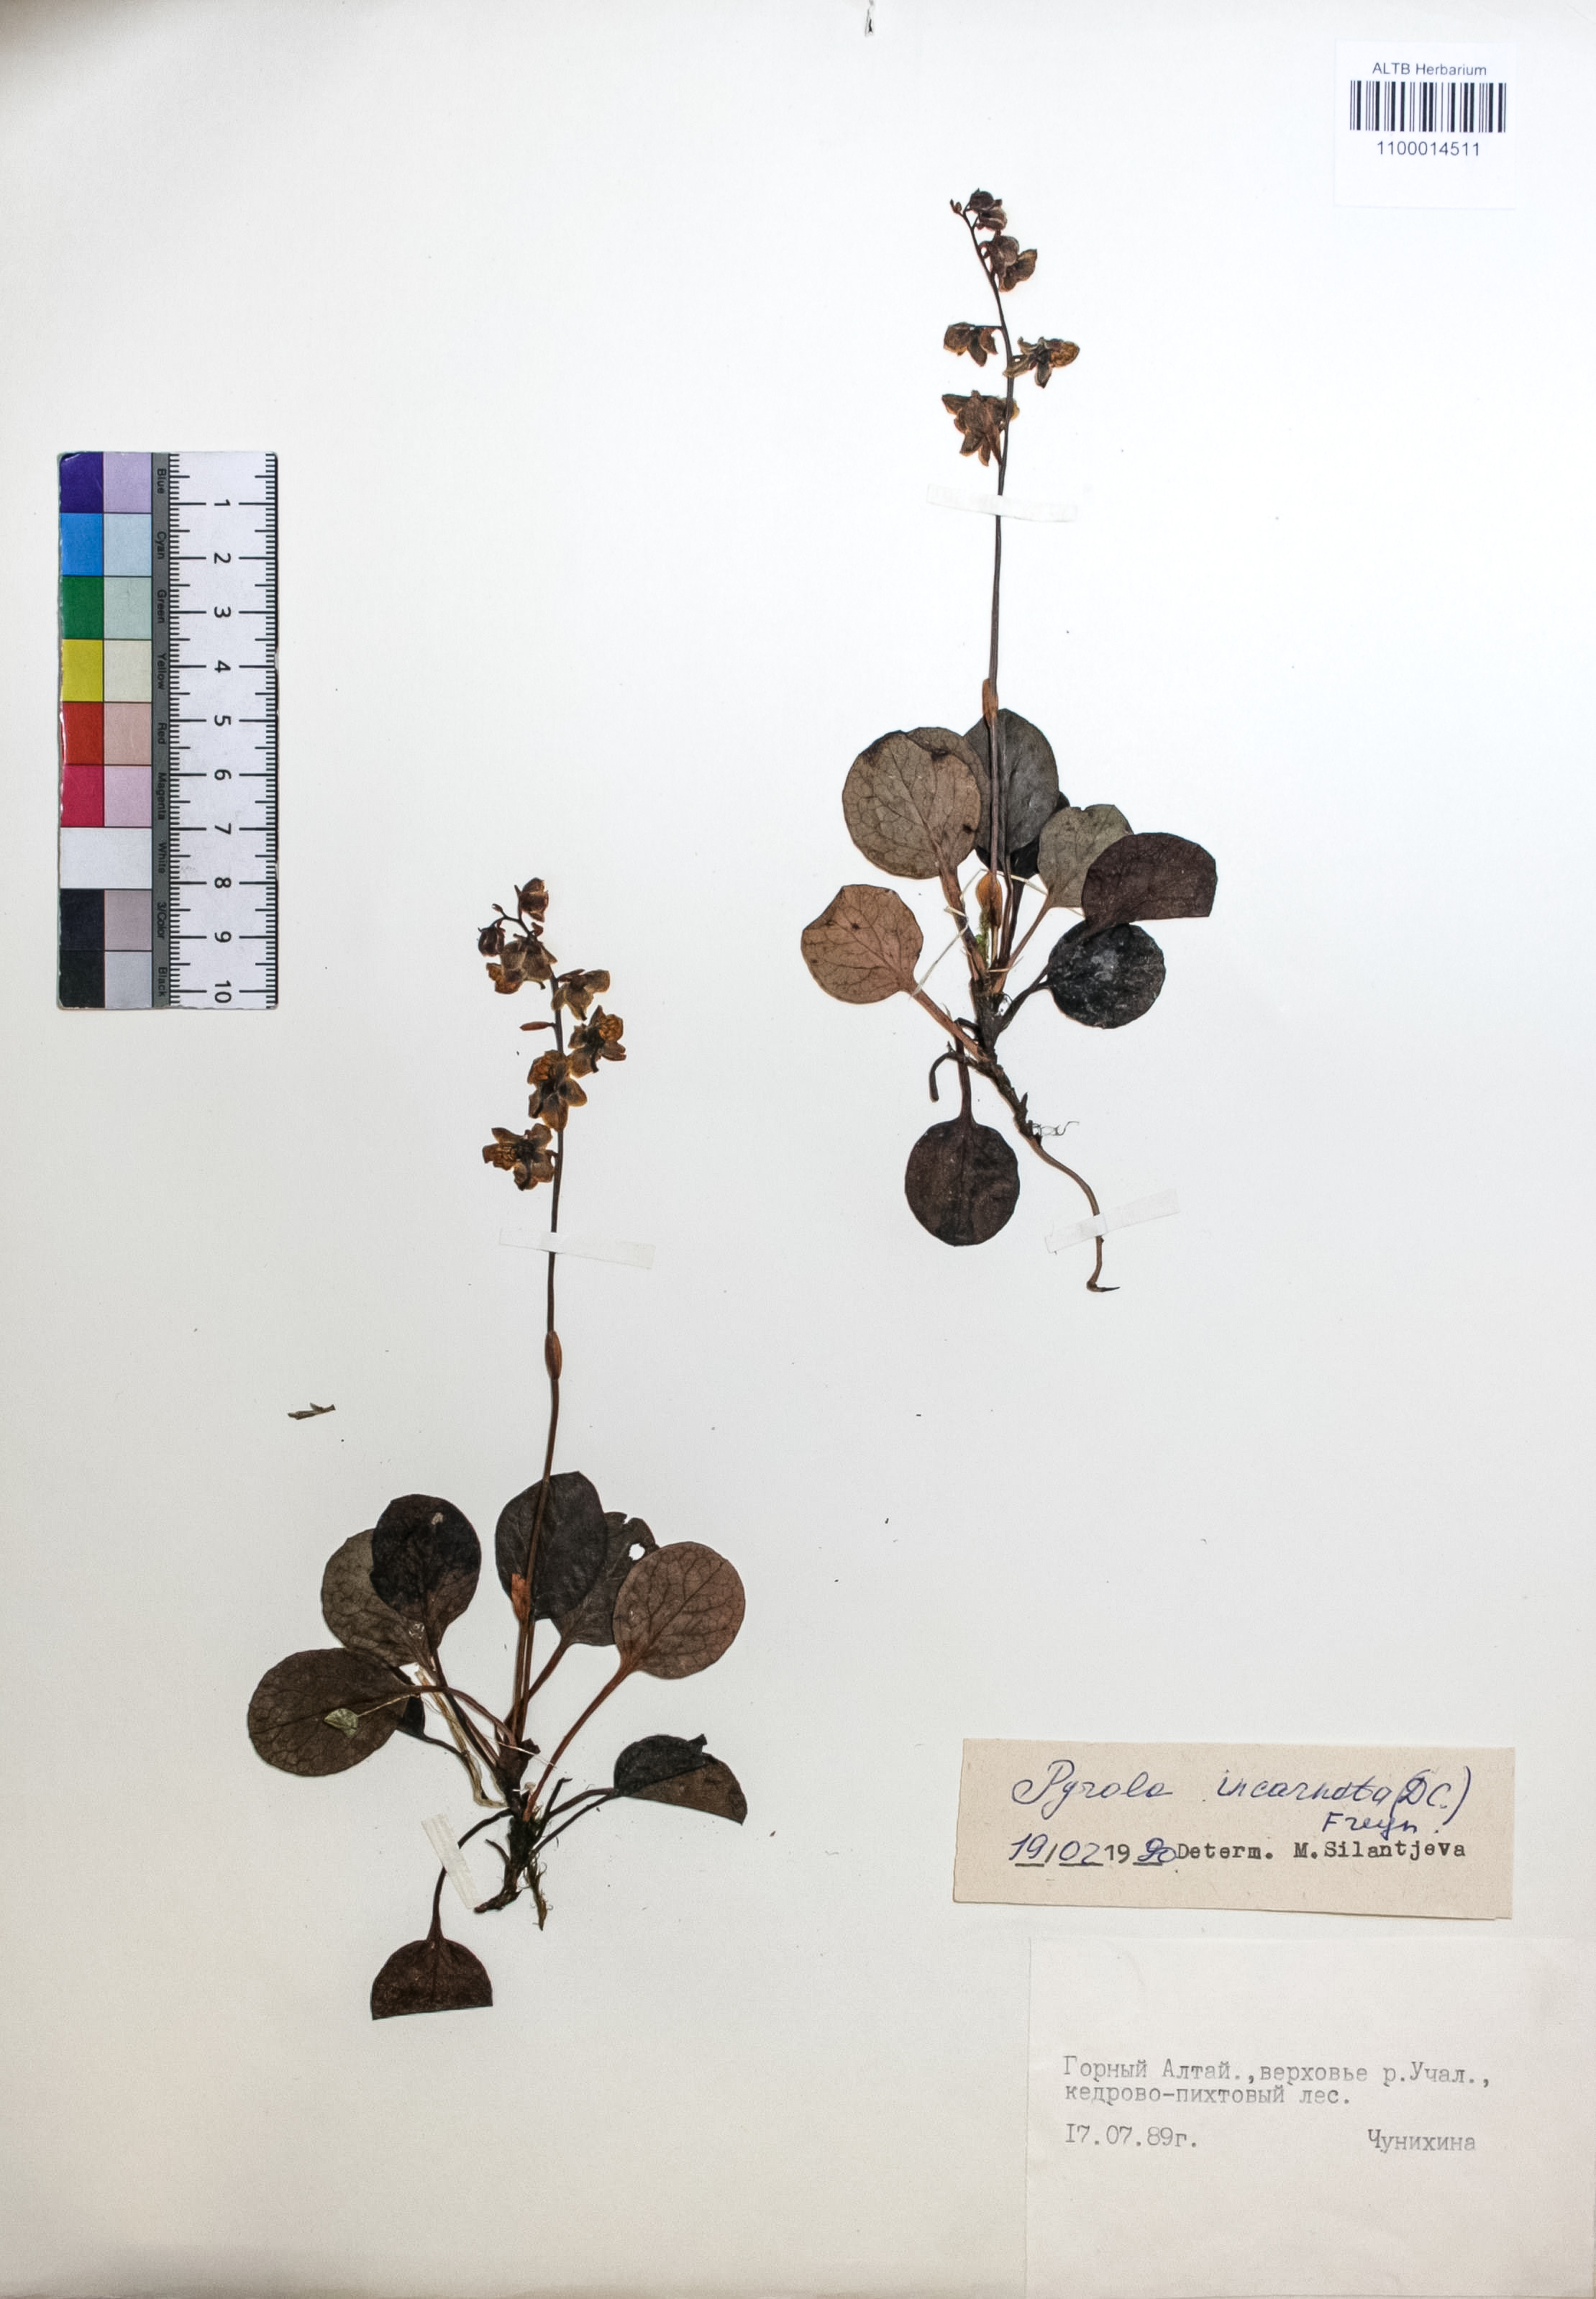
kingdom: Plantae
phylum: Tracheophyta
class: Magnoliopsida
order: Ericales
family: Ericaceae
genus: Pyrola
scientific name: Pyrola asarifolia
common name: Bog wintergreen
